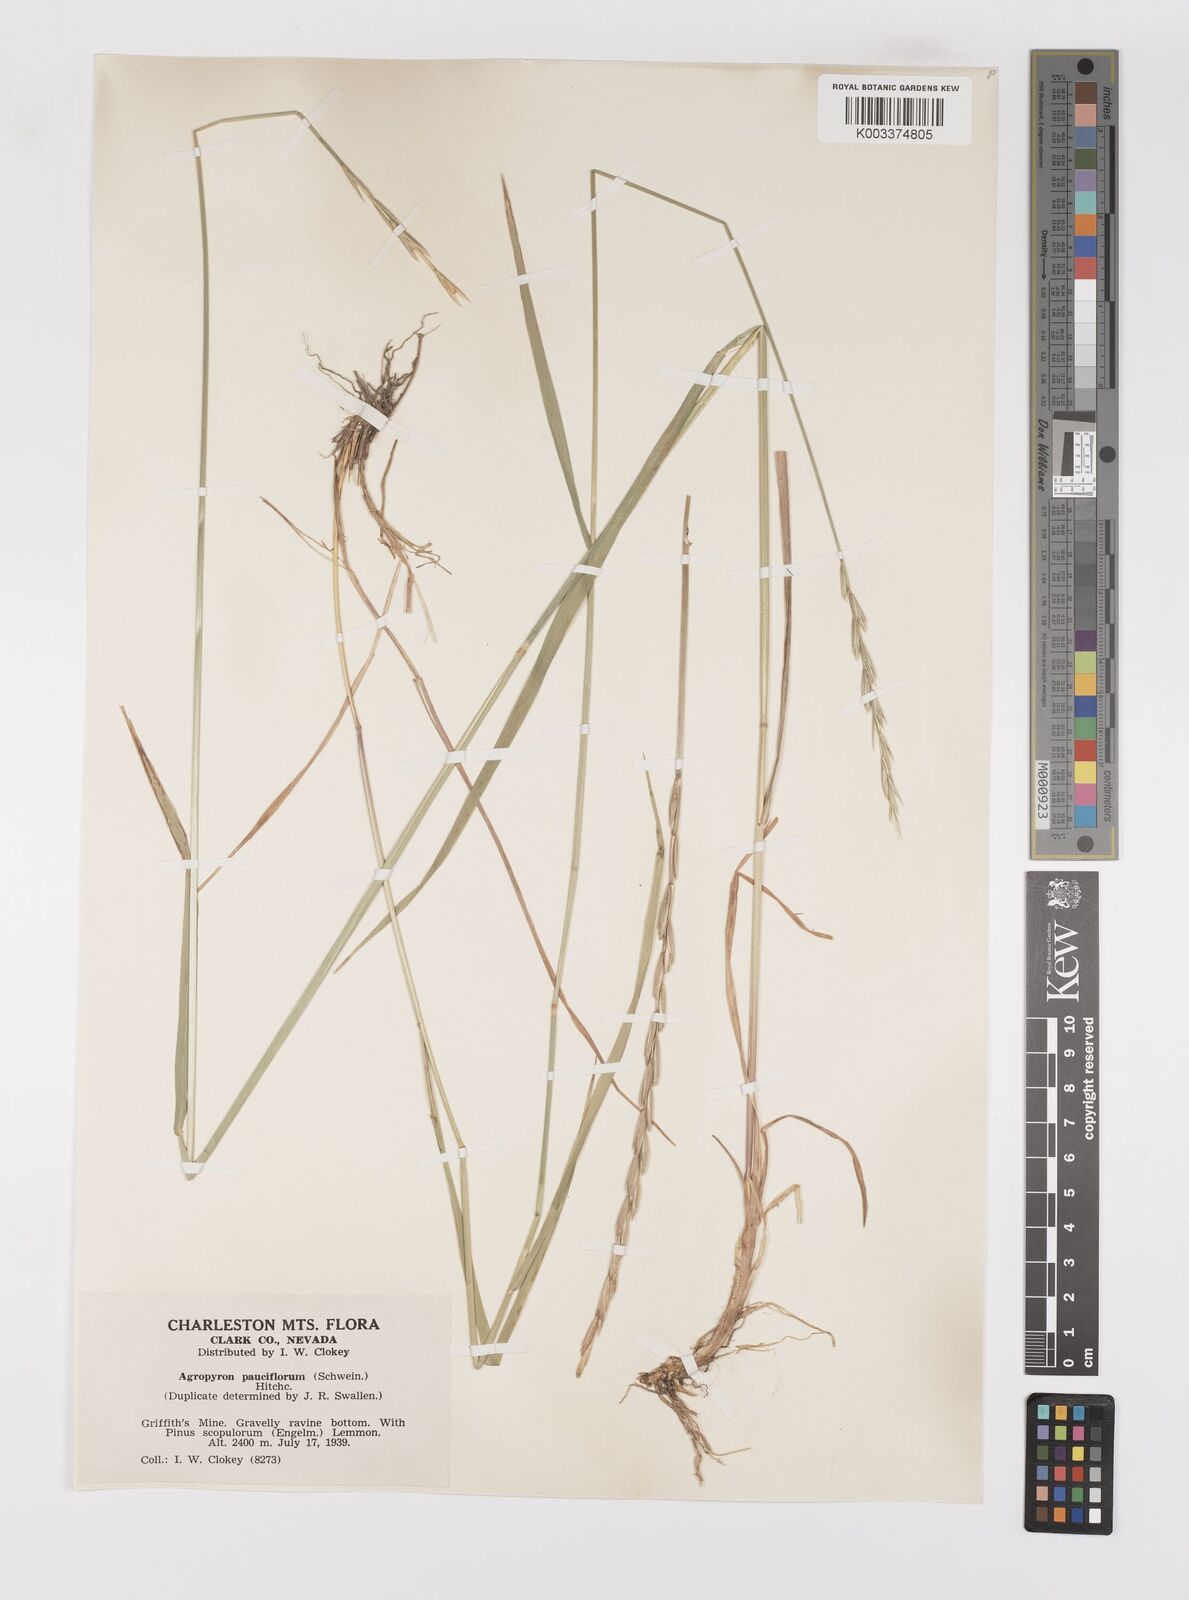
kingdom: Plantae
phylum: Tracheophyta
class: Liliopsida
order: Poales
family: Poaceae
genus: Elymus
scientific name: Elymus violaceus
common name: Arctic wheatgrass
